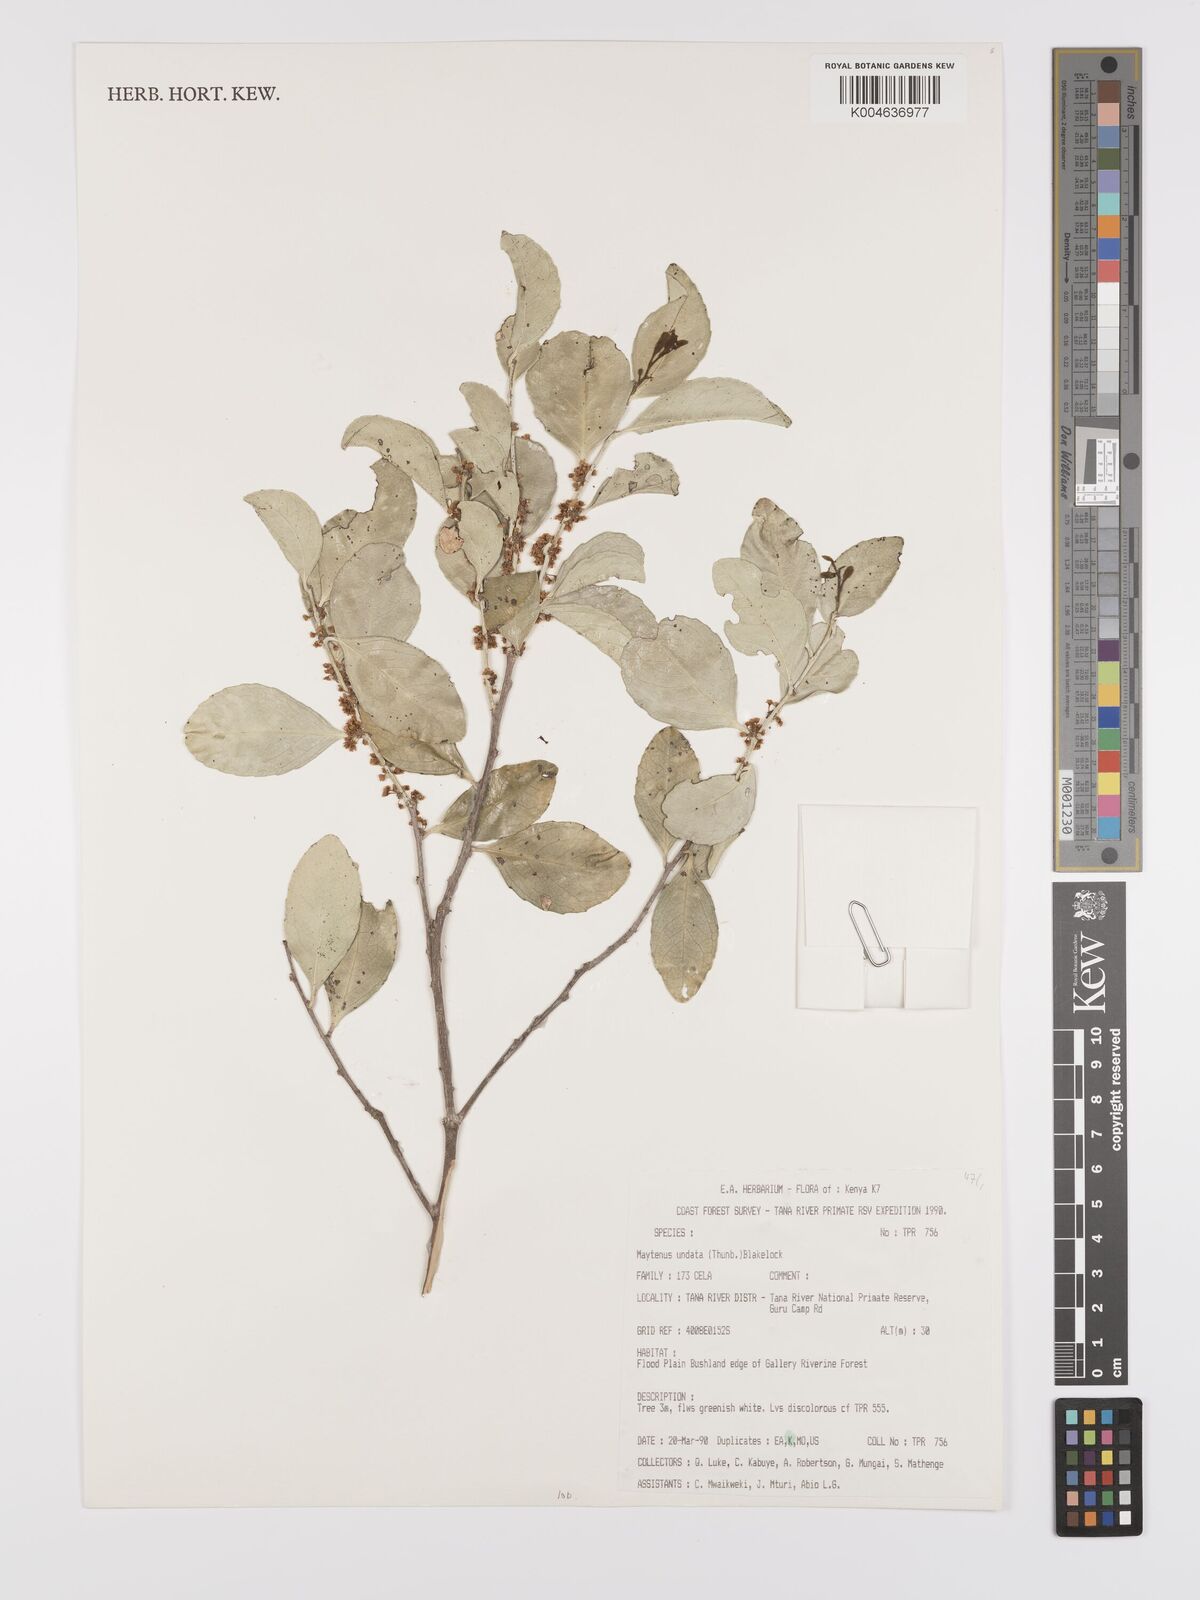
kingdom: Plantae
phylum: Tracheophyta
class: Magnoliopsida
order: Celastrales
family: Celastraceae
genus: Gymnosporia
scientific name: Gymnosporia undata
